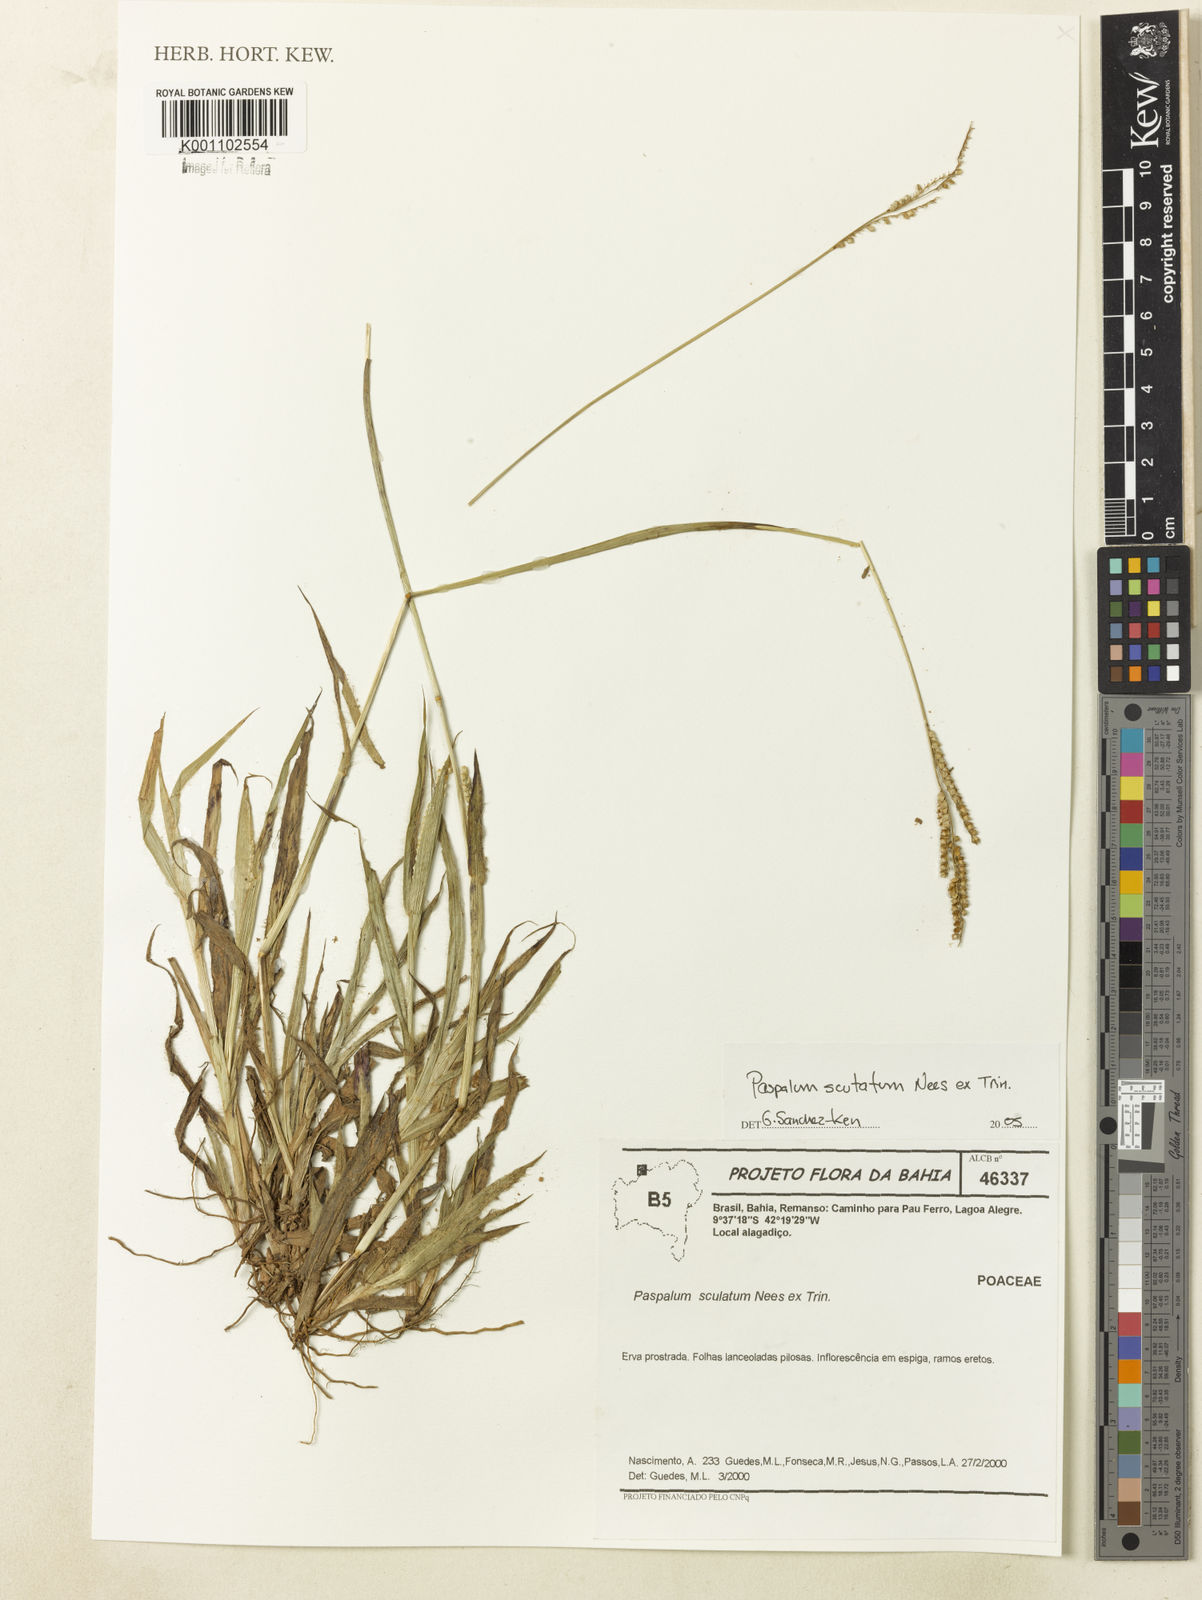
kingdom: Plantae
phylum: Tracheophyta
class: Liliopsida
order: Poales
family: Poaceae
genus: Paspalum
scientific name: Paspalum scutatum
